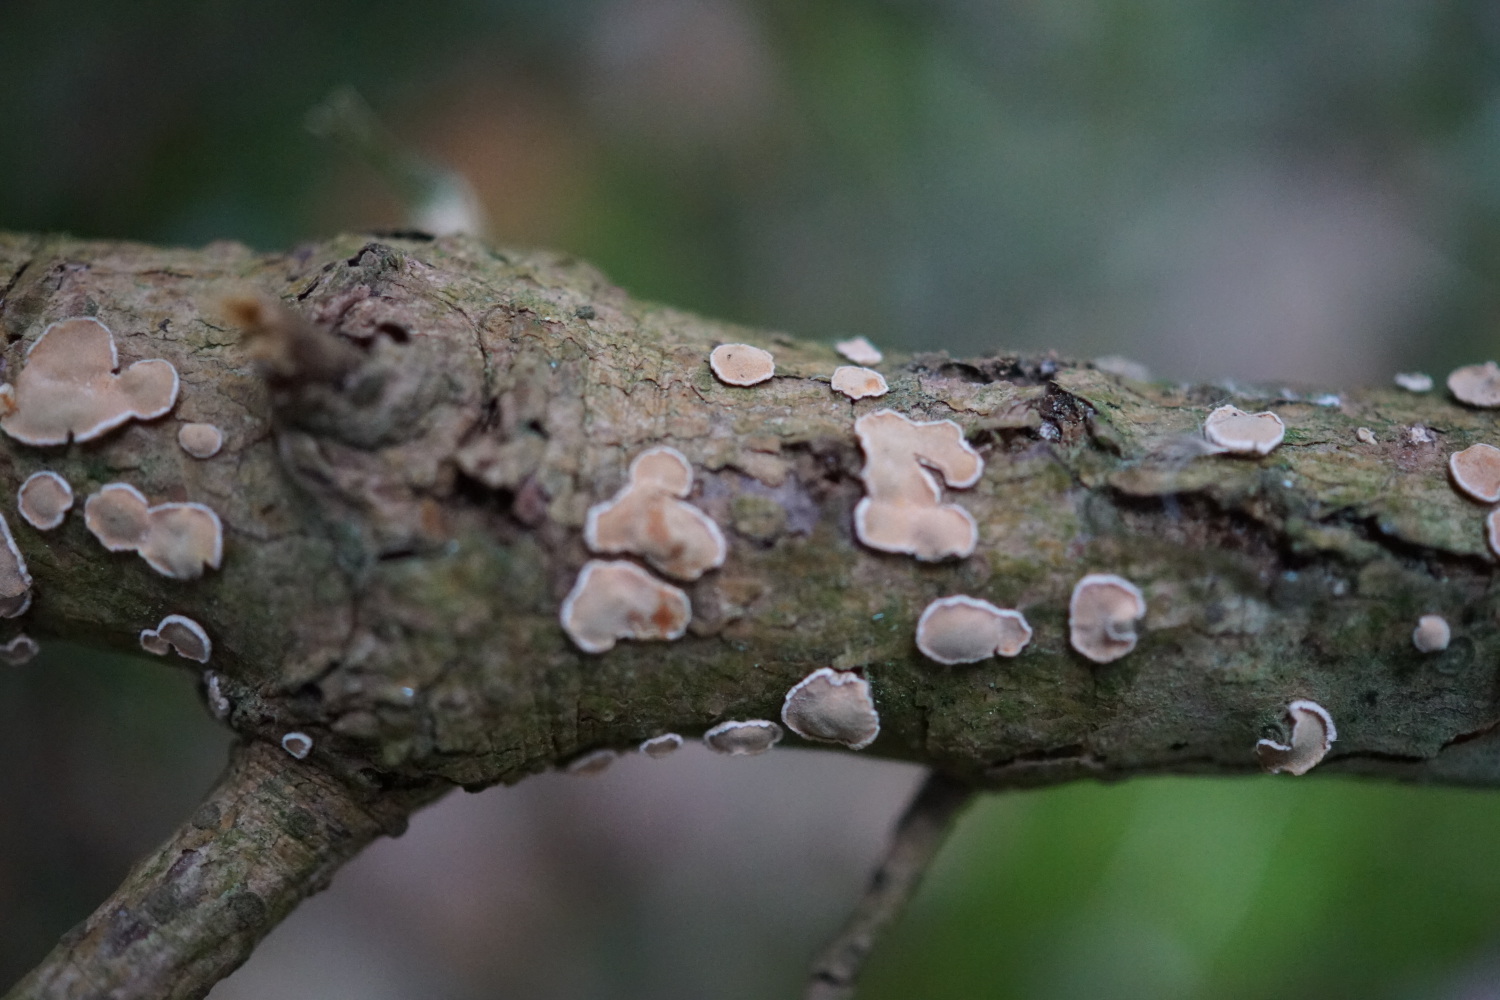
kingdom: Fungi
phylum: Basidiomycota
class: Agaricomycetes
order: Russulales
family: Stereaceae
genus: Aleurodiscus
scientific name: Aleurodiscus amorphus
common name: orange skiveskorpe
